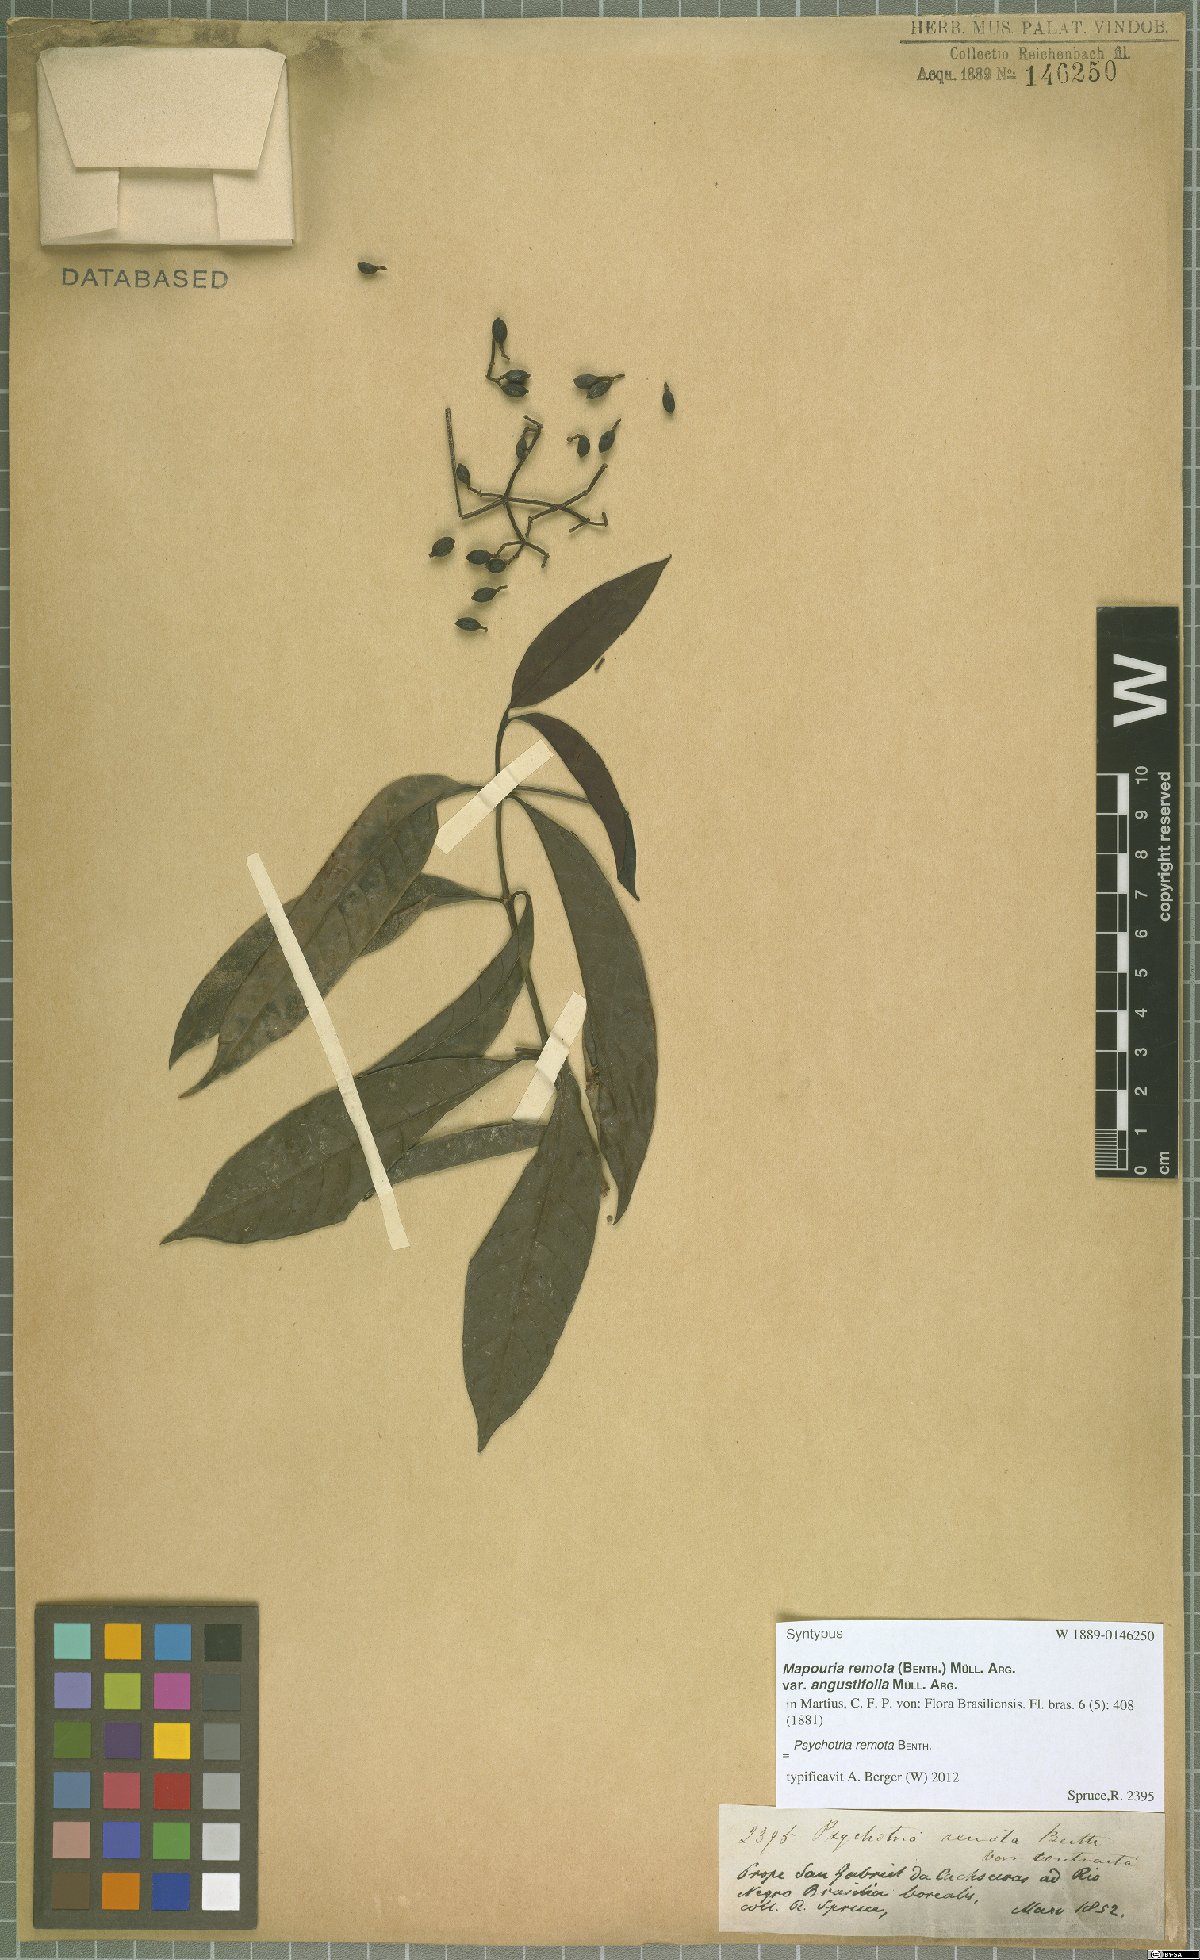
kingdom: Plantae
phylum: Tracheophyta
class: Magnoliopsida
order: Gentianales
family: Rubiaceae
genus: Psychotria
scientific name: Psychotria remota
